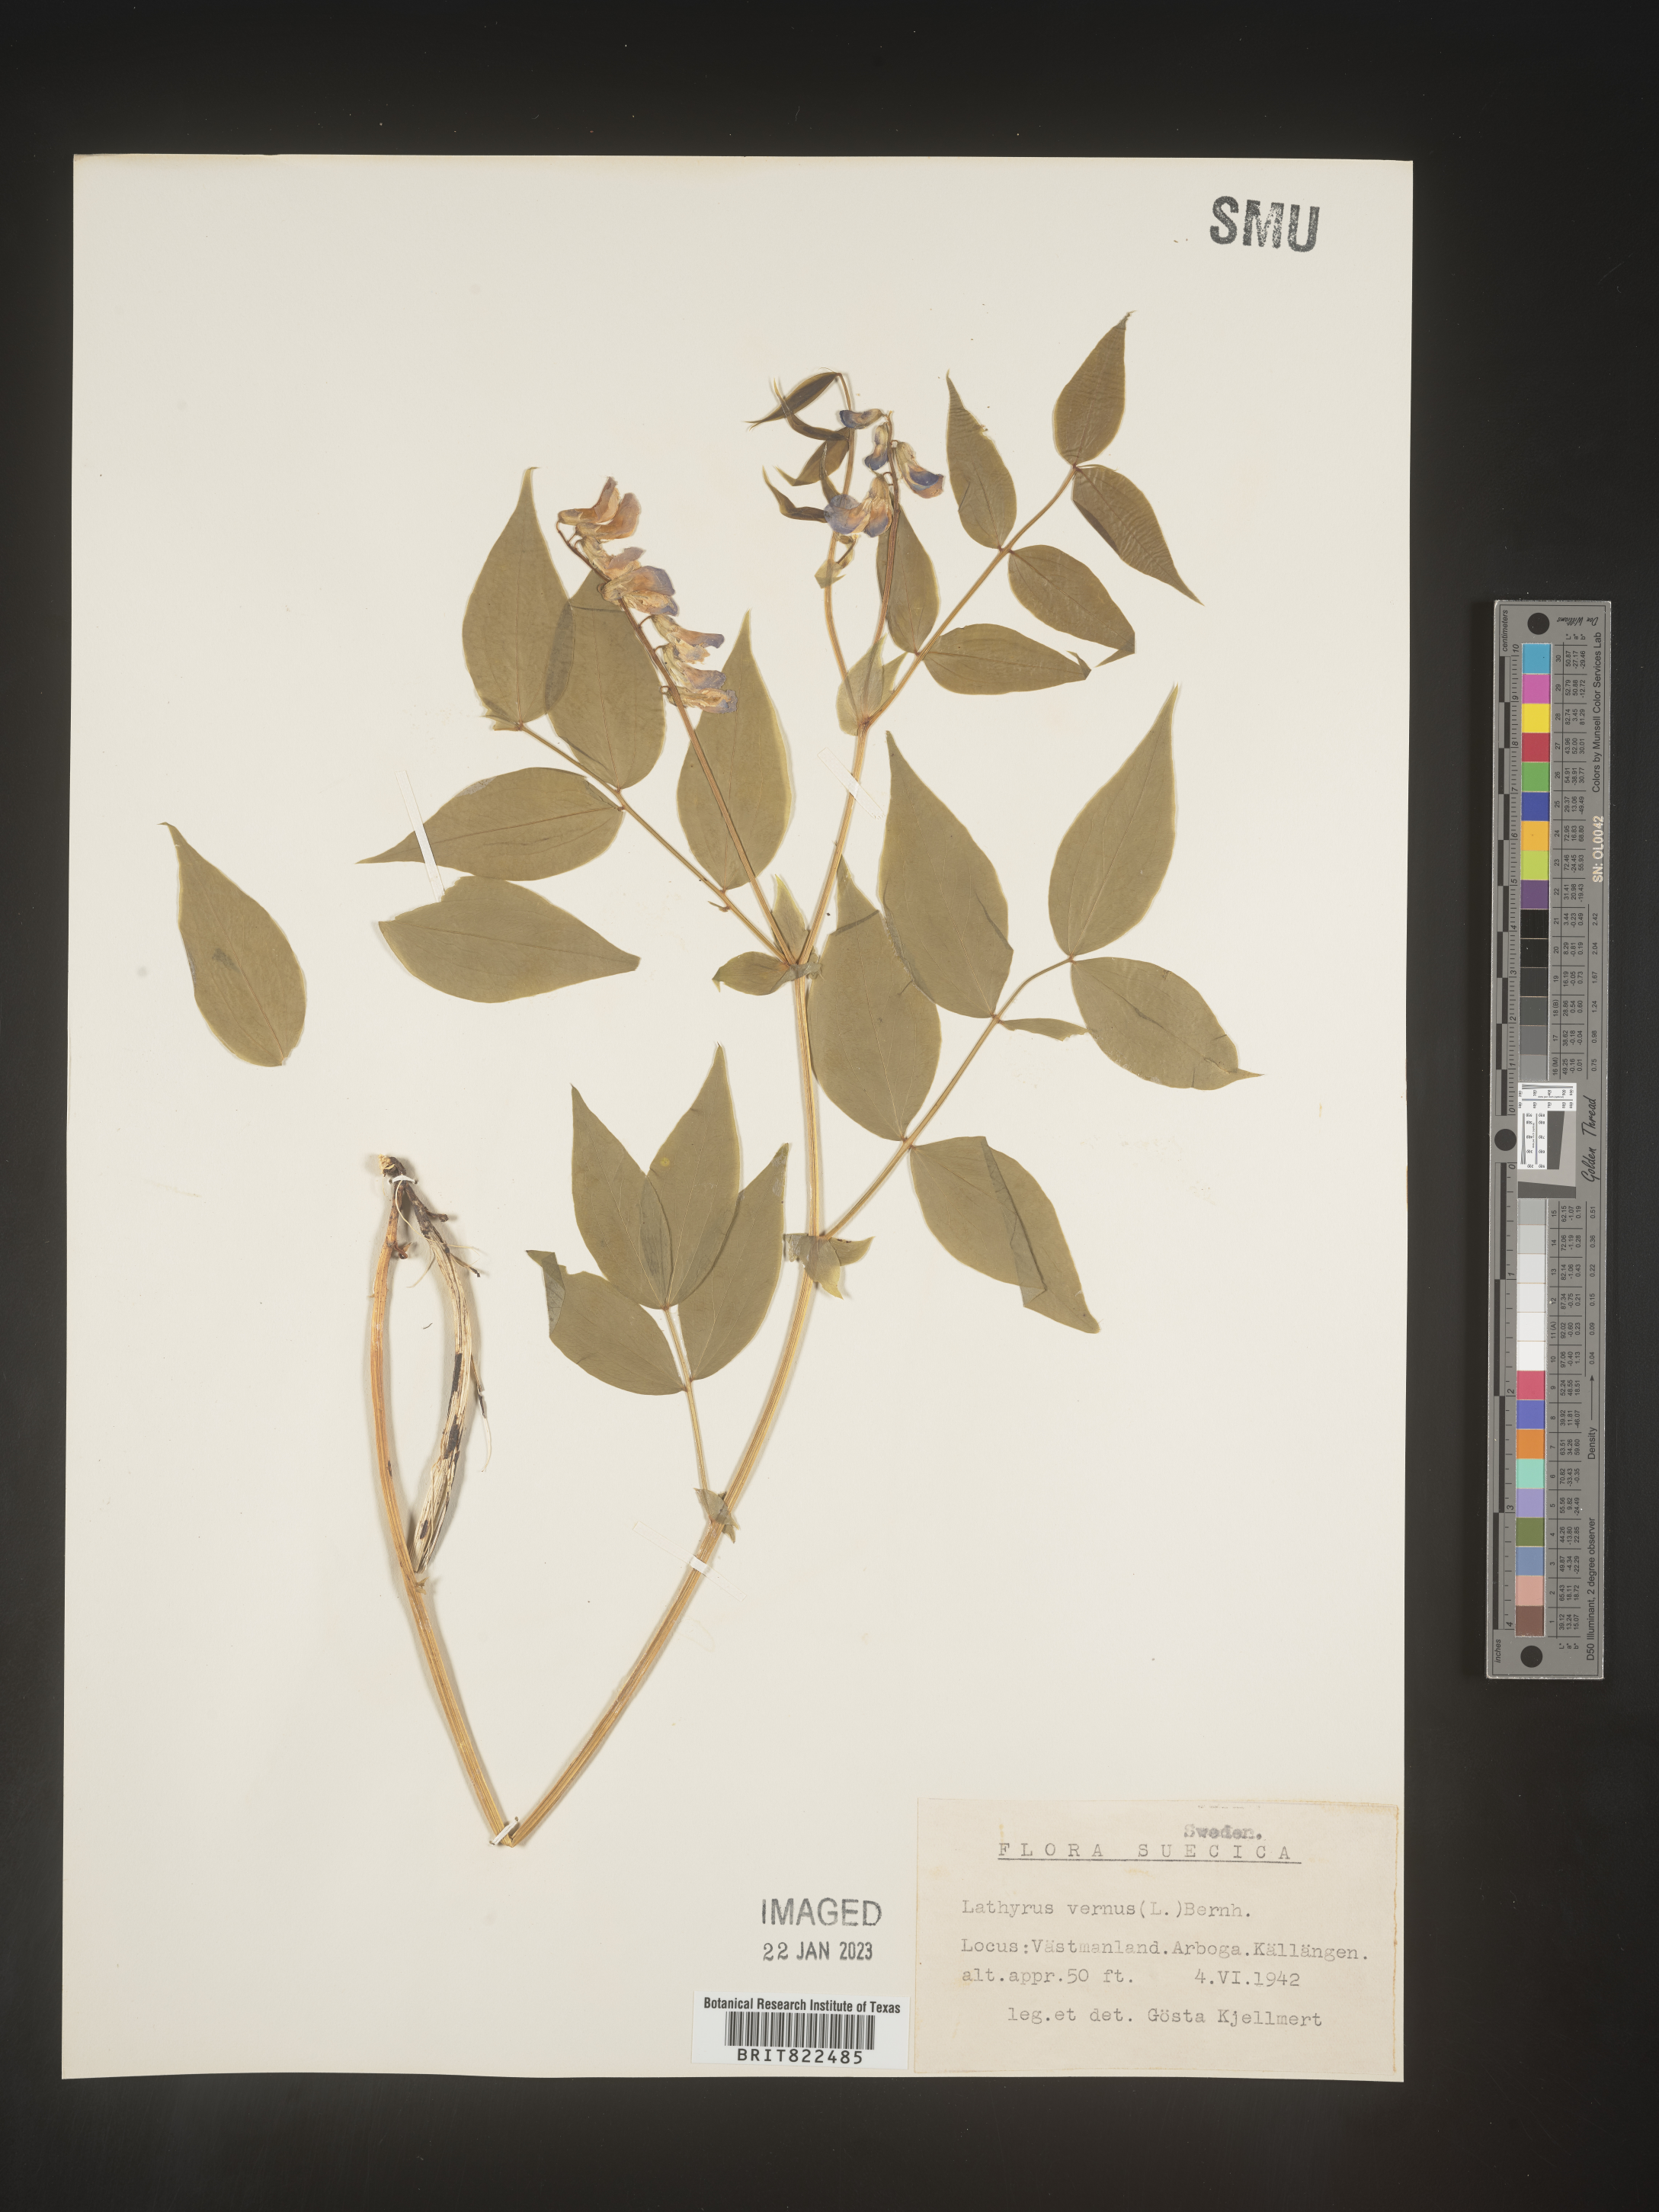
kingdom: Plantae
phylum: Tracheophyta
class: Magnoliopsida
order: Fabales
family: Fabaceae
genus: Lathyrus
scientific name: Lathyrus
